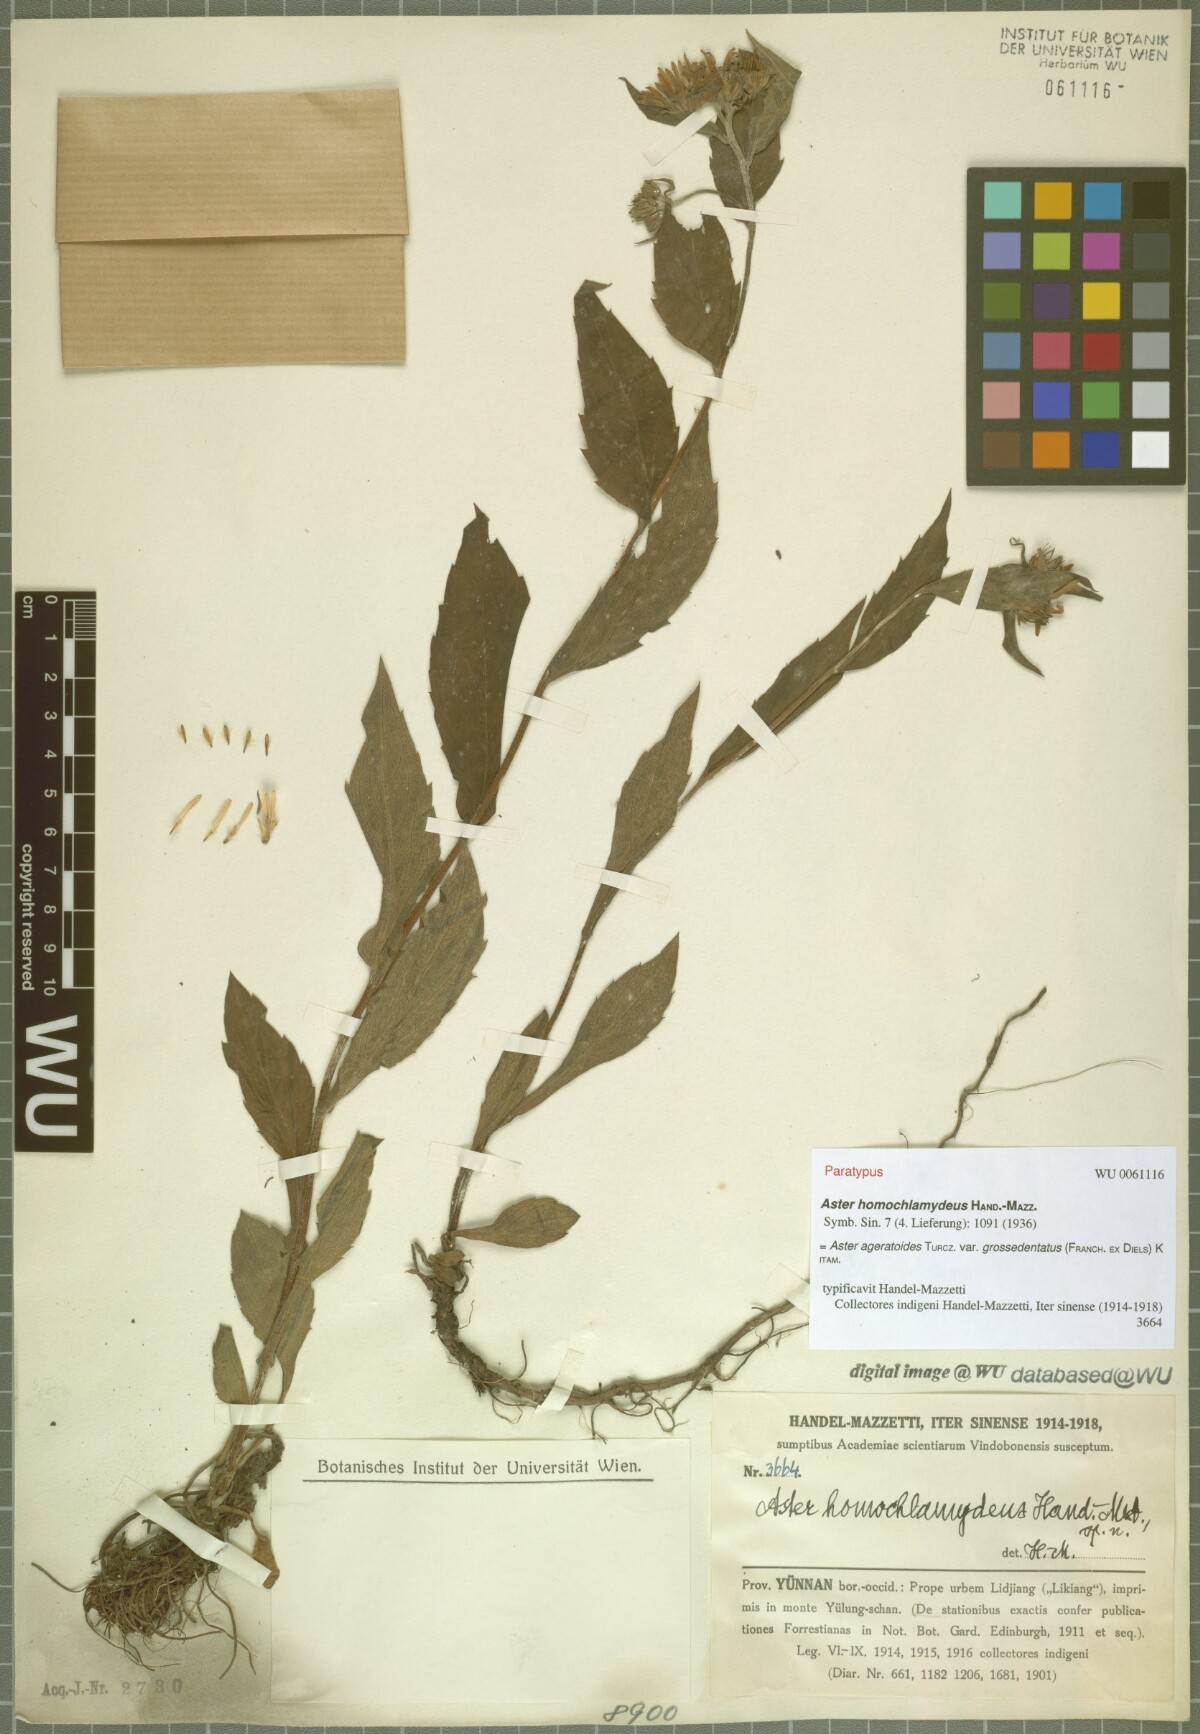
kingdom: Plantae
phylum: Tracheophyta
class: Magnoliopsida
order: Asterales
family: Asteraceae
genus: Aster
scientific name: Aster homochlamydeus
